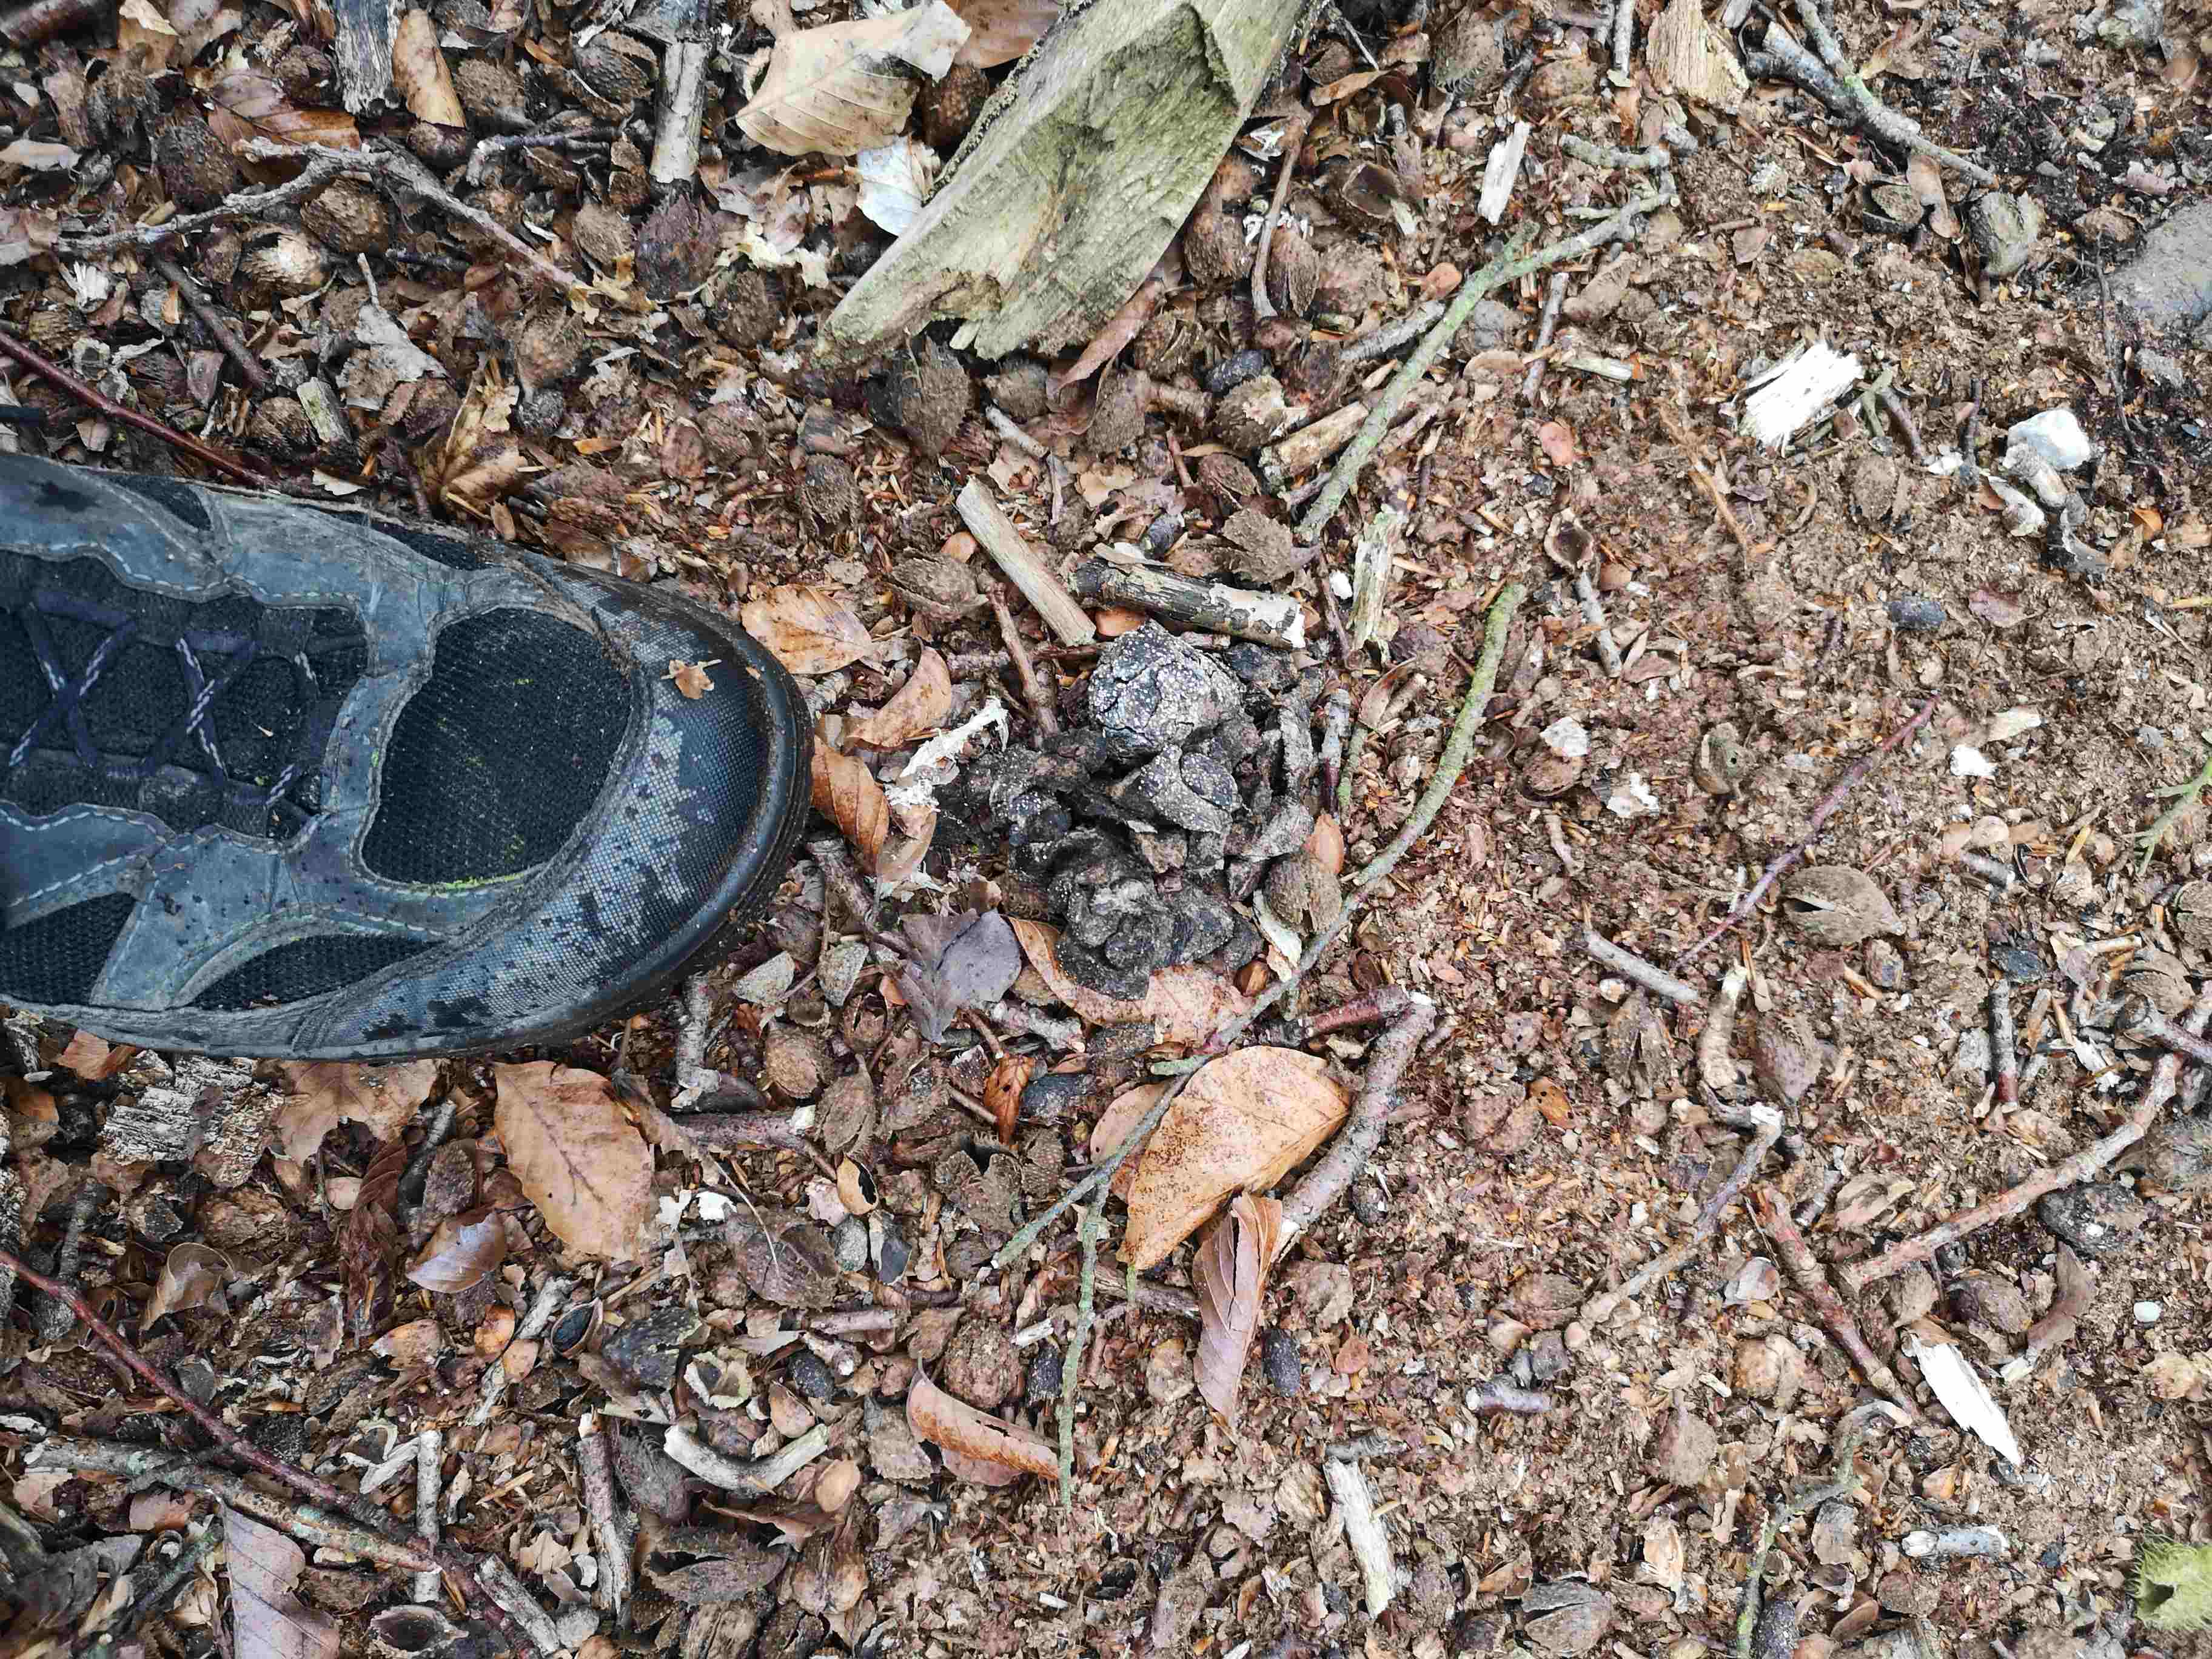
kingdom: Fungi
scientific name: Fungi
